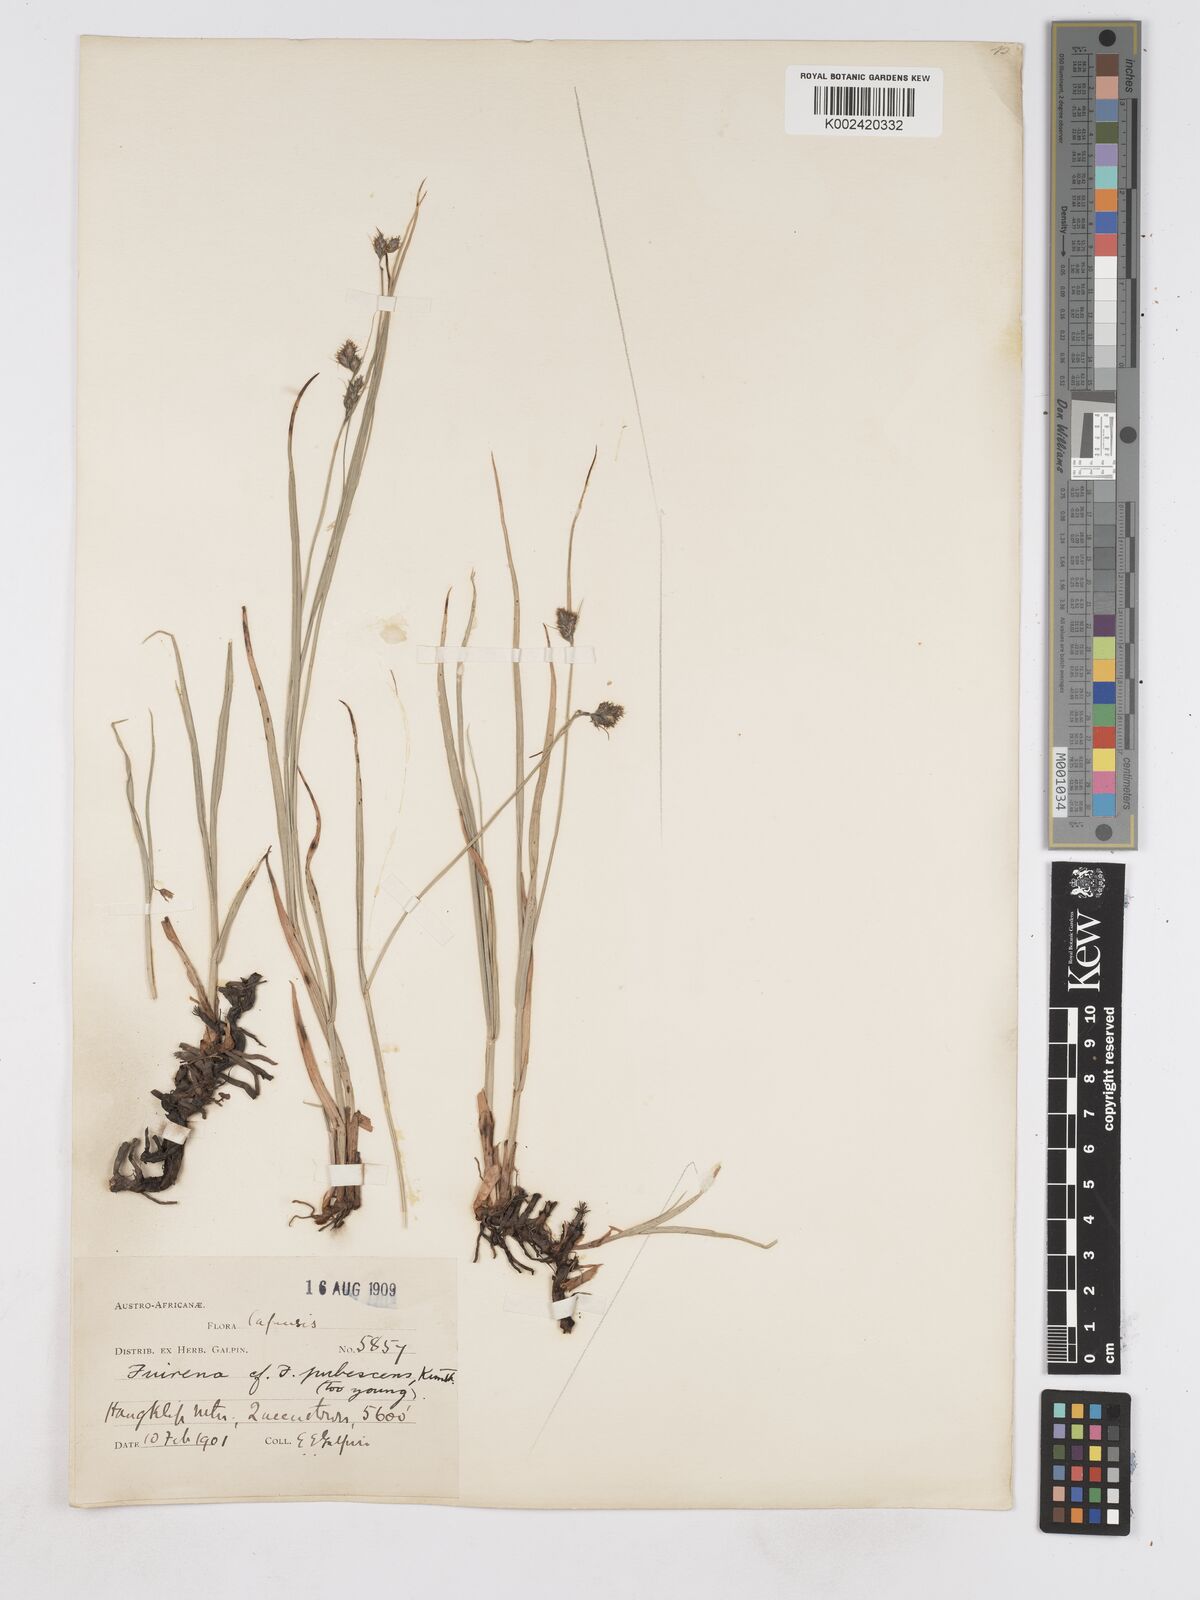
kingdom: Plantae
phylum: Tracheophyta
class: Liliopsida
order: Poales
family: Cyperaceae
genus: Fuirena
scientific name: Fuirena
